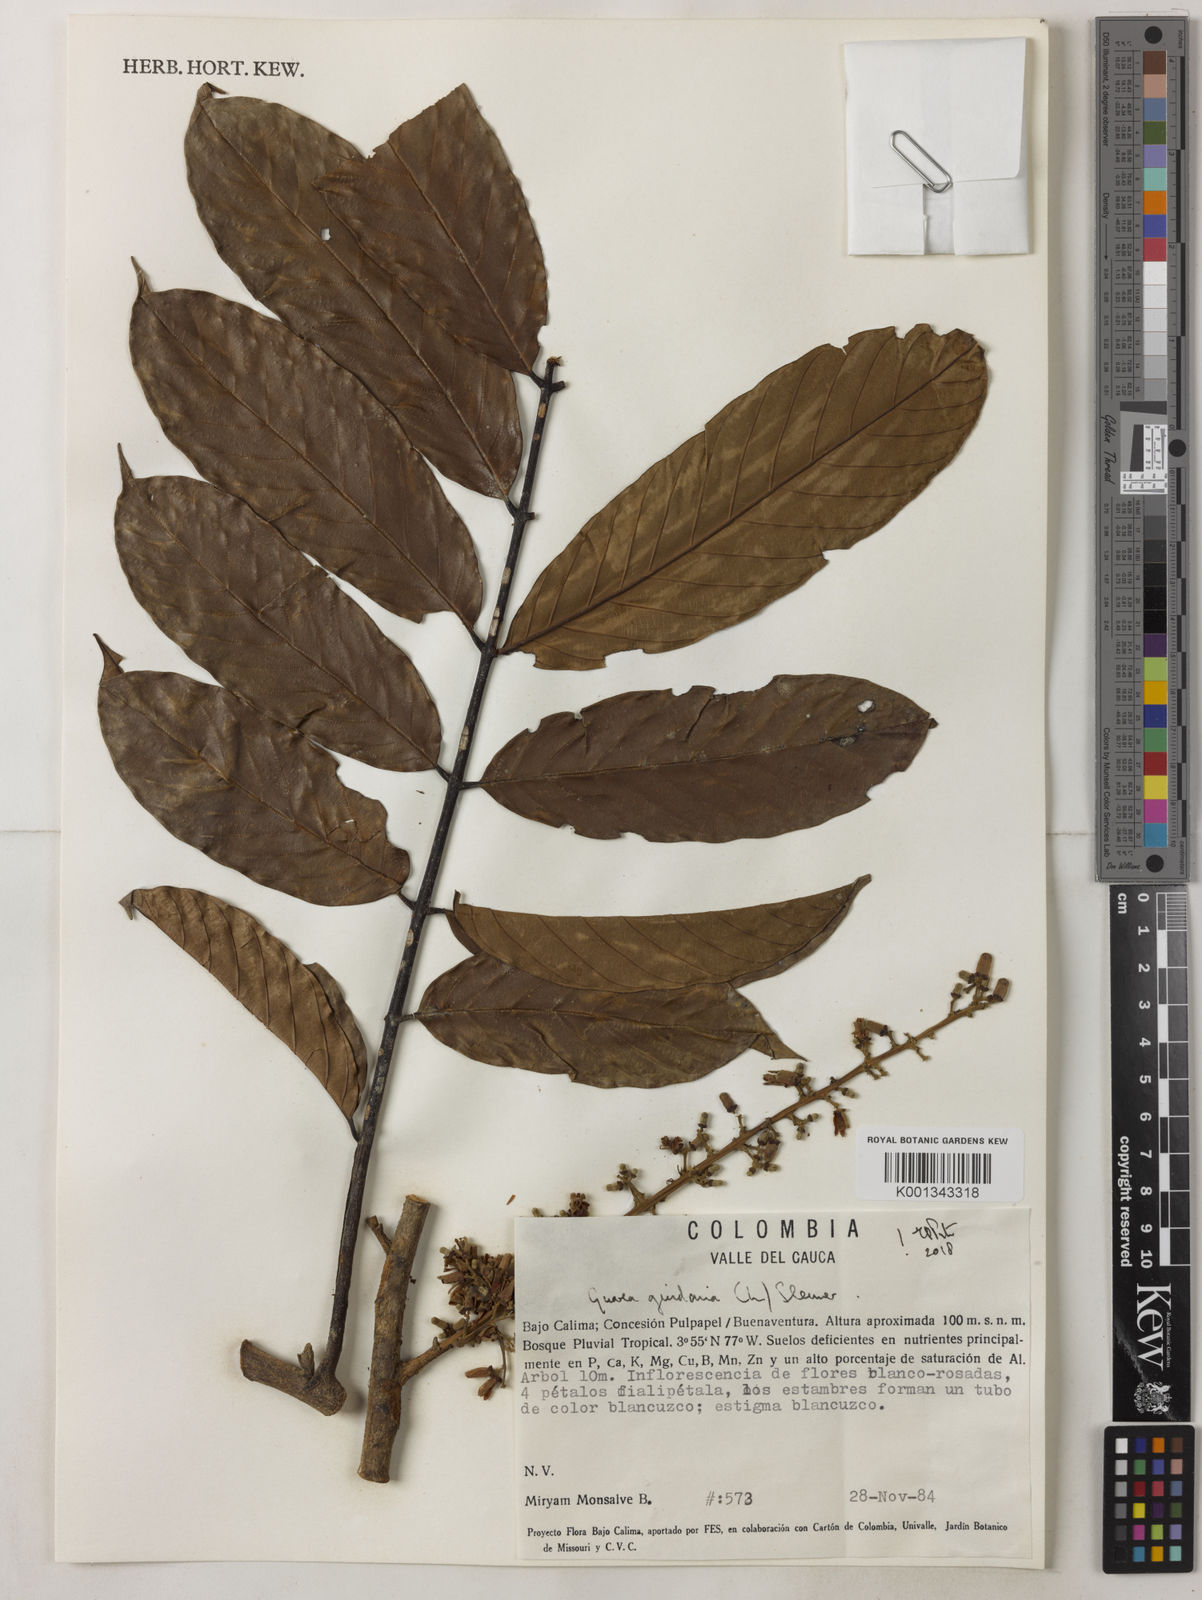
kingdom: Plantae
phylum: Tracheophyta
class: Magnoliopsida
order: Sapindales
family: Meliaceae
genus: Guarea
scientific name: Guarea guidonia
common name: American muskwood
